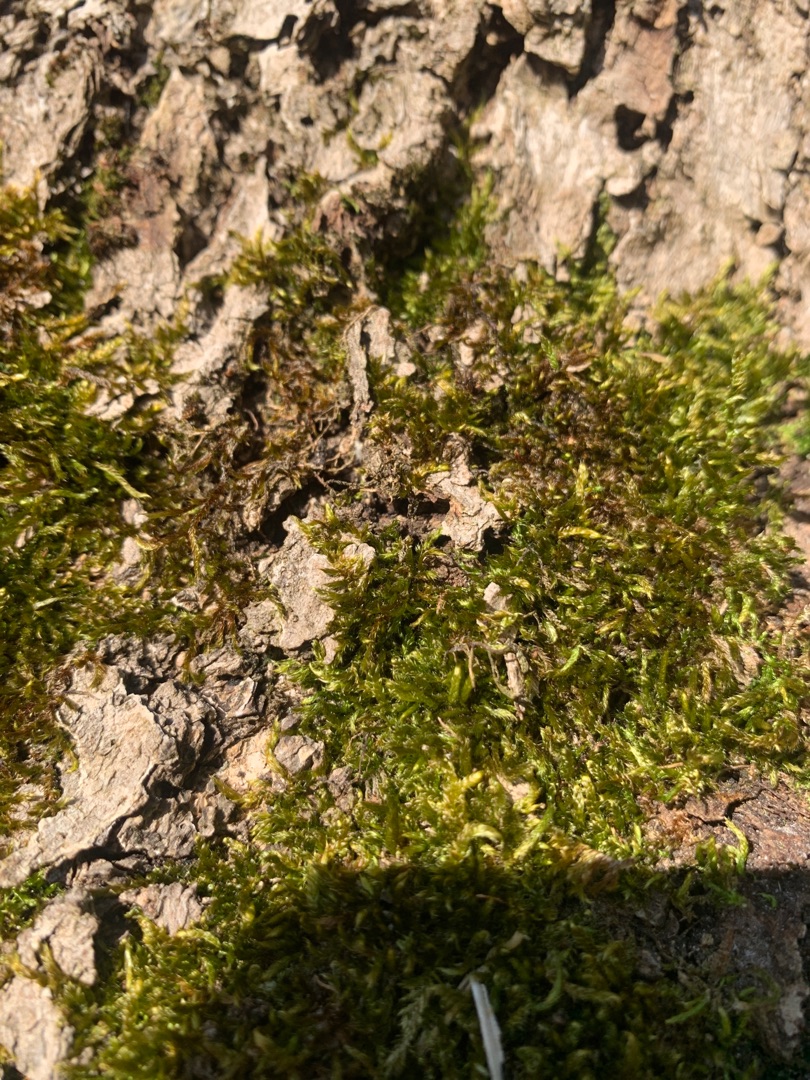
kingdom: Plantae
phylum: Bryophyta
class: Bryopsida
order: Hypnales
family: Hypnaceae
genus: Hypnum
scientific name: Hypnum
